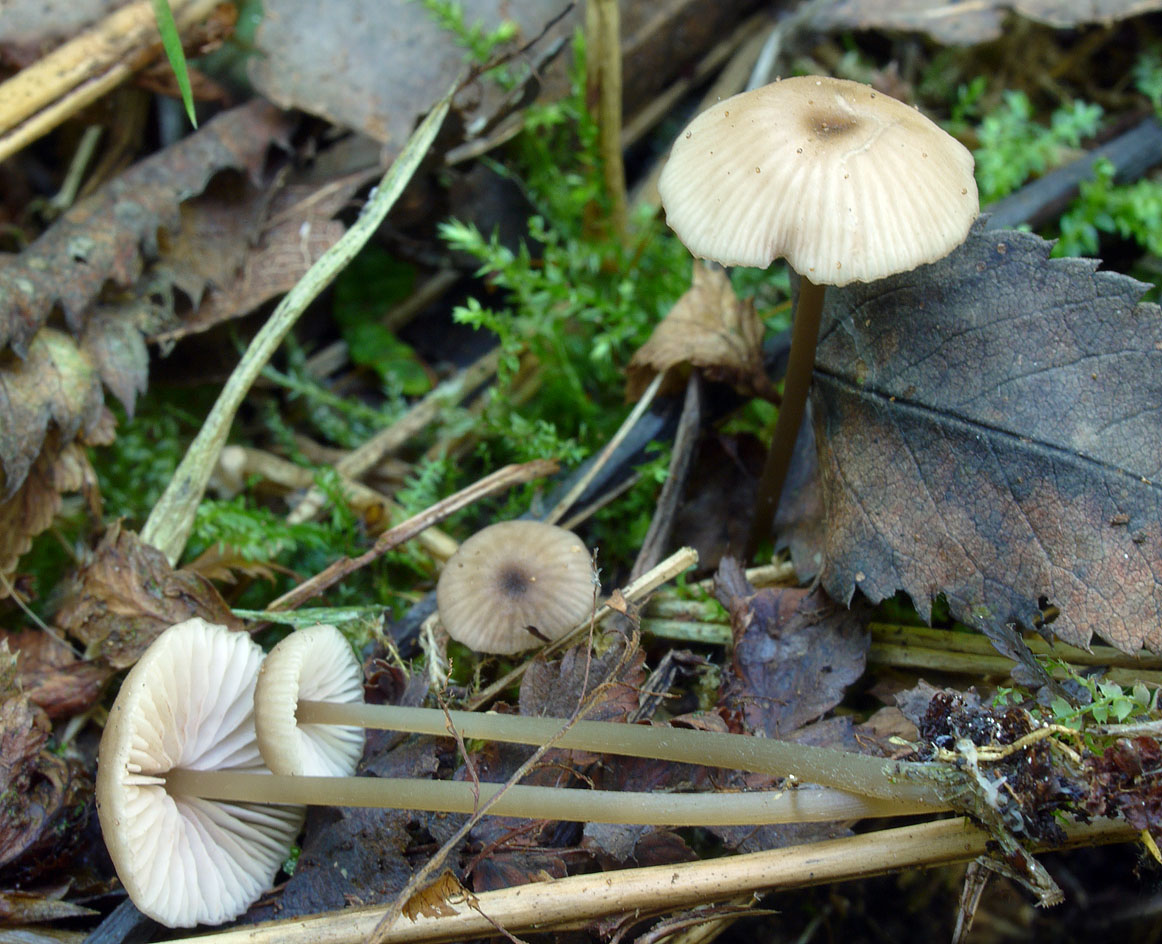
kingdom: Fungi
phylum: Basidiomycota
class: Agaricomycetes
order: Agaricales
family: Entolomataceae
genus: Entoloma
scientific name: Entoloma incognitum
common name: sommer-rødblad
